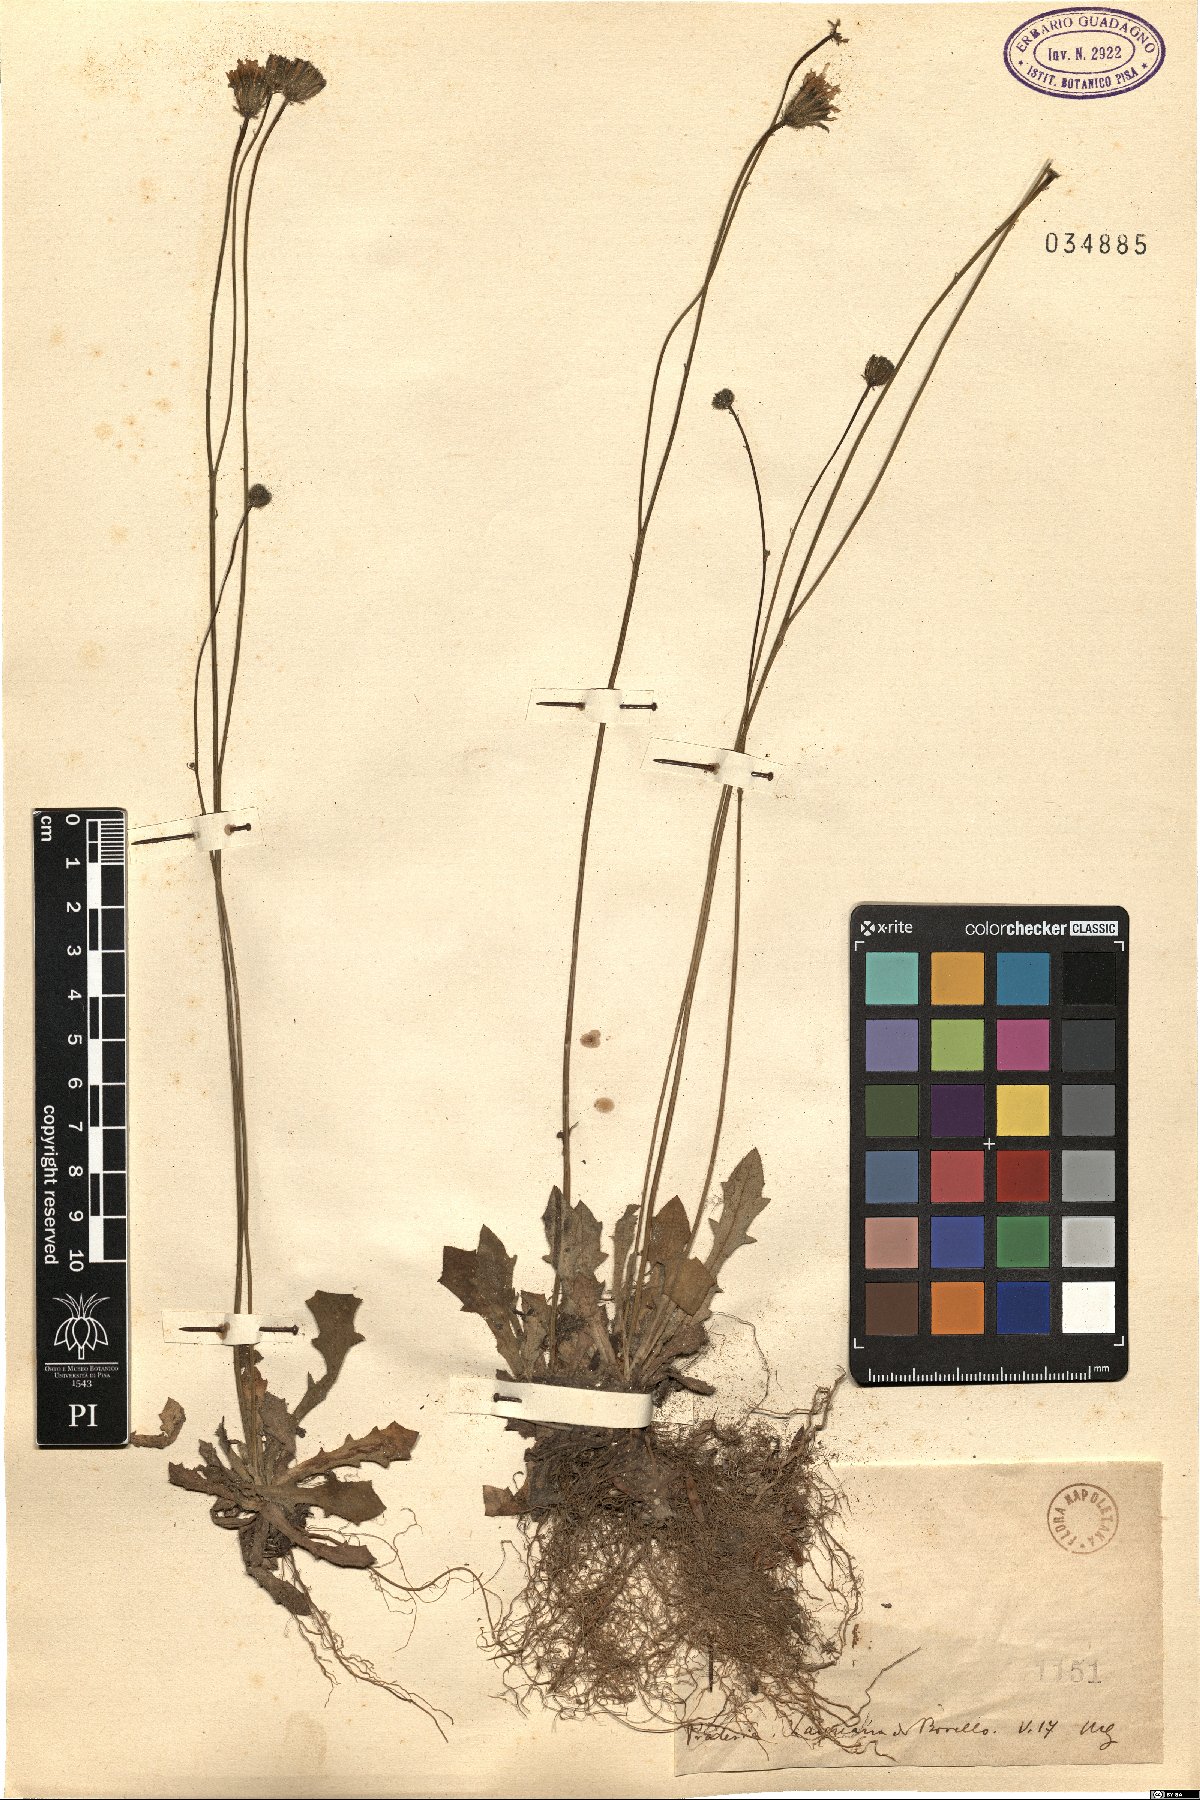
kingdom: Plantae
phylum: Tracheophyta
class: Magnoliopsida
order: Asterales
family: Asteraceae
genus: Hypochaeris
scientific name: Hypochaeris
